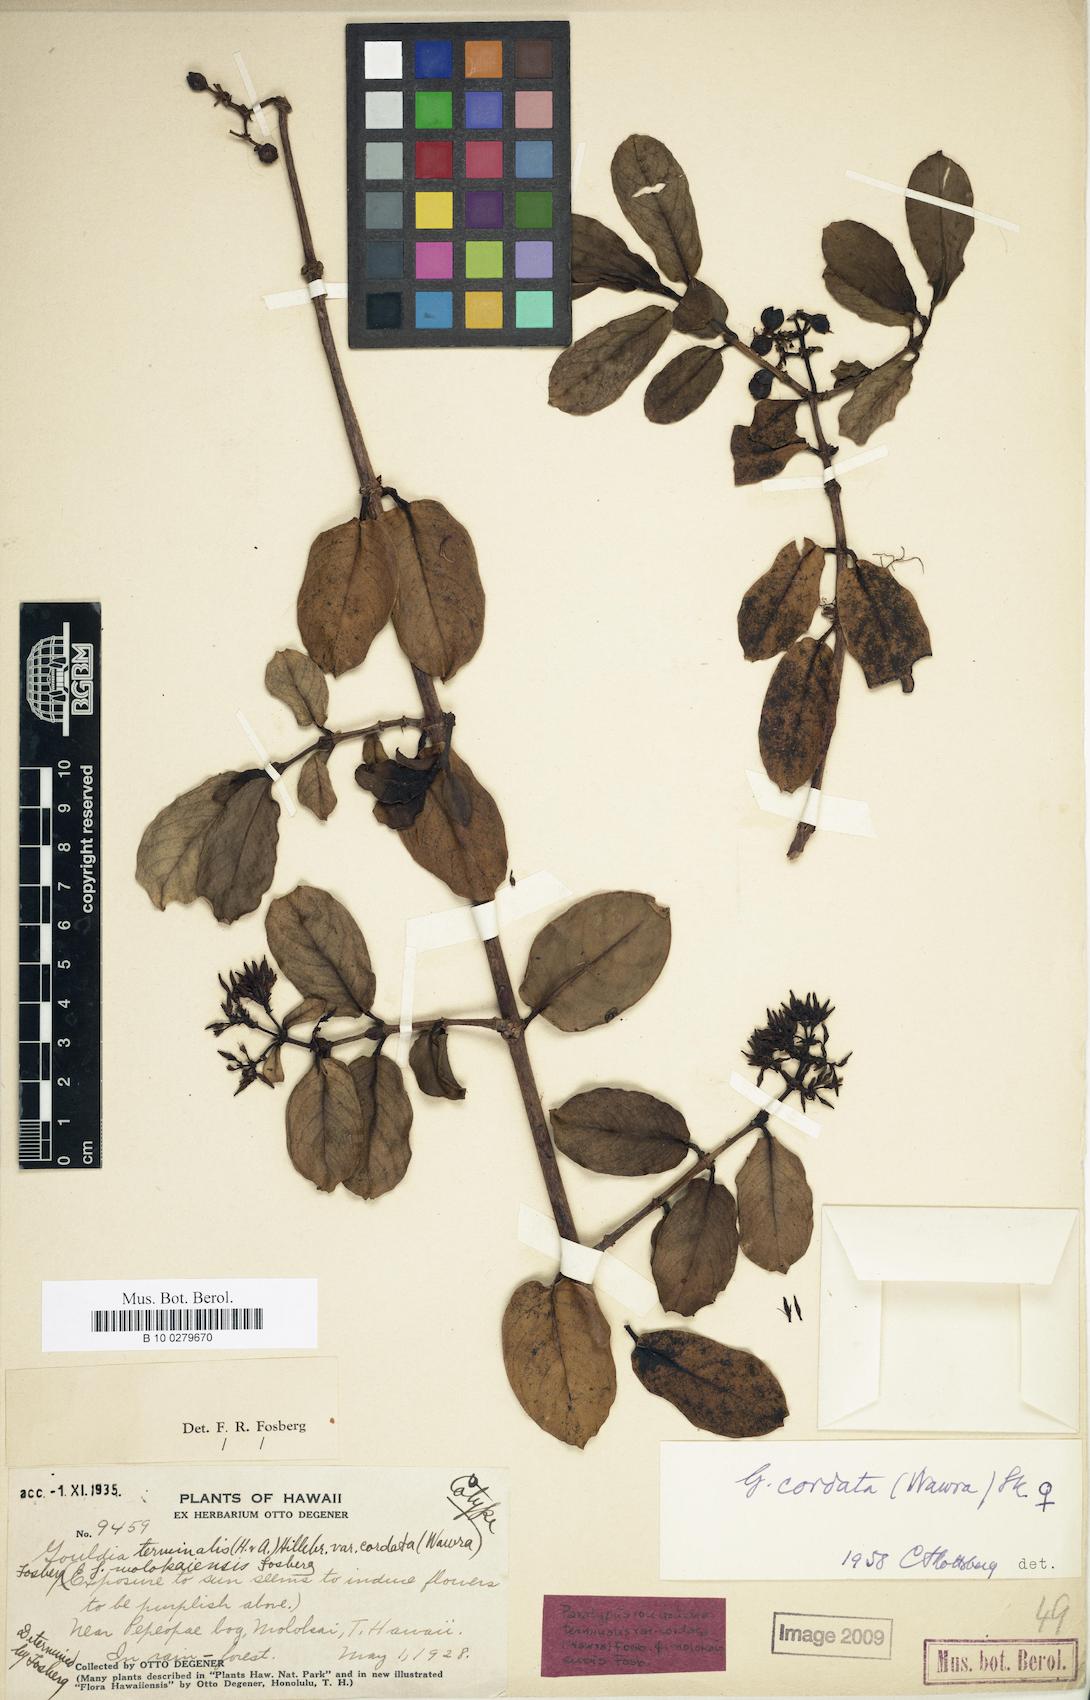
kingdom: Plantae
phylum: Tracheophyta
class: Magnoliopsida
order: Gentianales
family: Rubiaceae
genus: Kadua
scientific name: Kadua affinis
